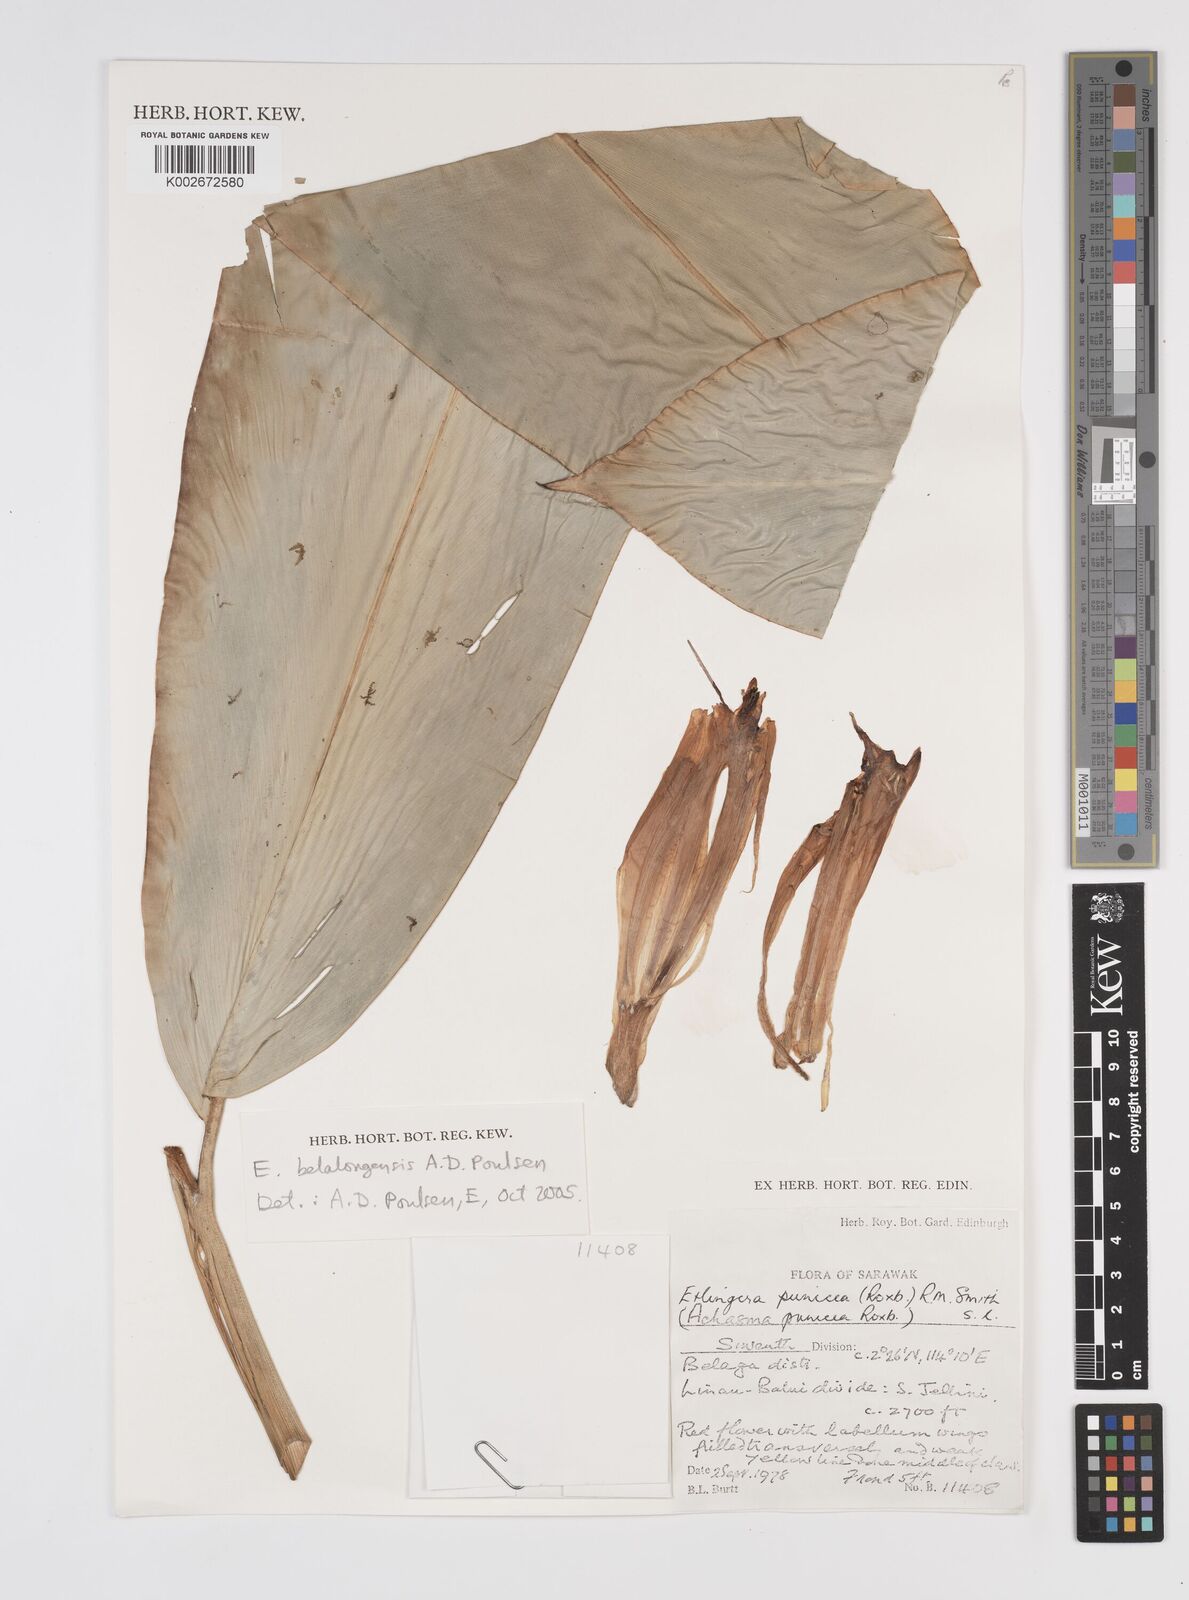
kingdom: Plantae
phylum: Tracheophyta
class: Liliopsida
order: Zingiberales
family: Zingiberaceae
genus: Etlingera
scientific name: Etlingera belalongensis
